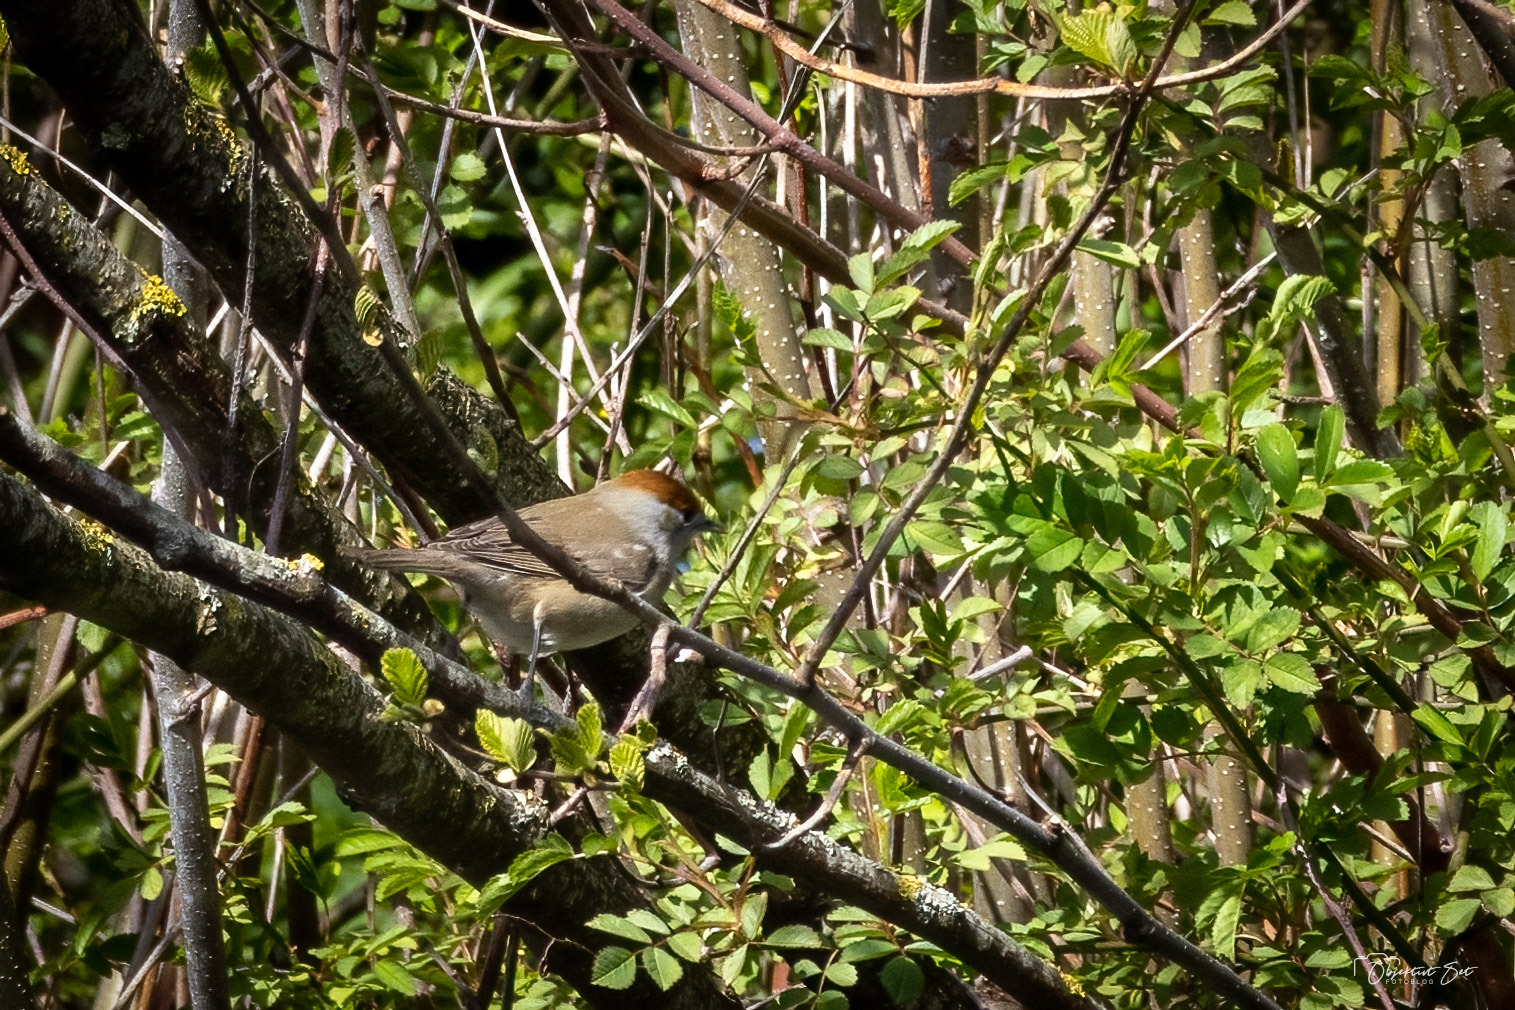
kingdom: Animalia
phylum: Chordata
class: Aves
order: Passeriformes
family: Sylviidae
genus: Sylvia
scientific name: Sylvia atricapilla
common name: Munk
